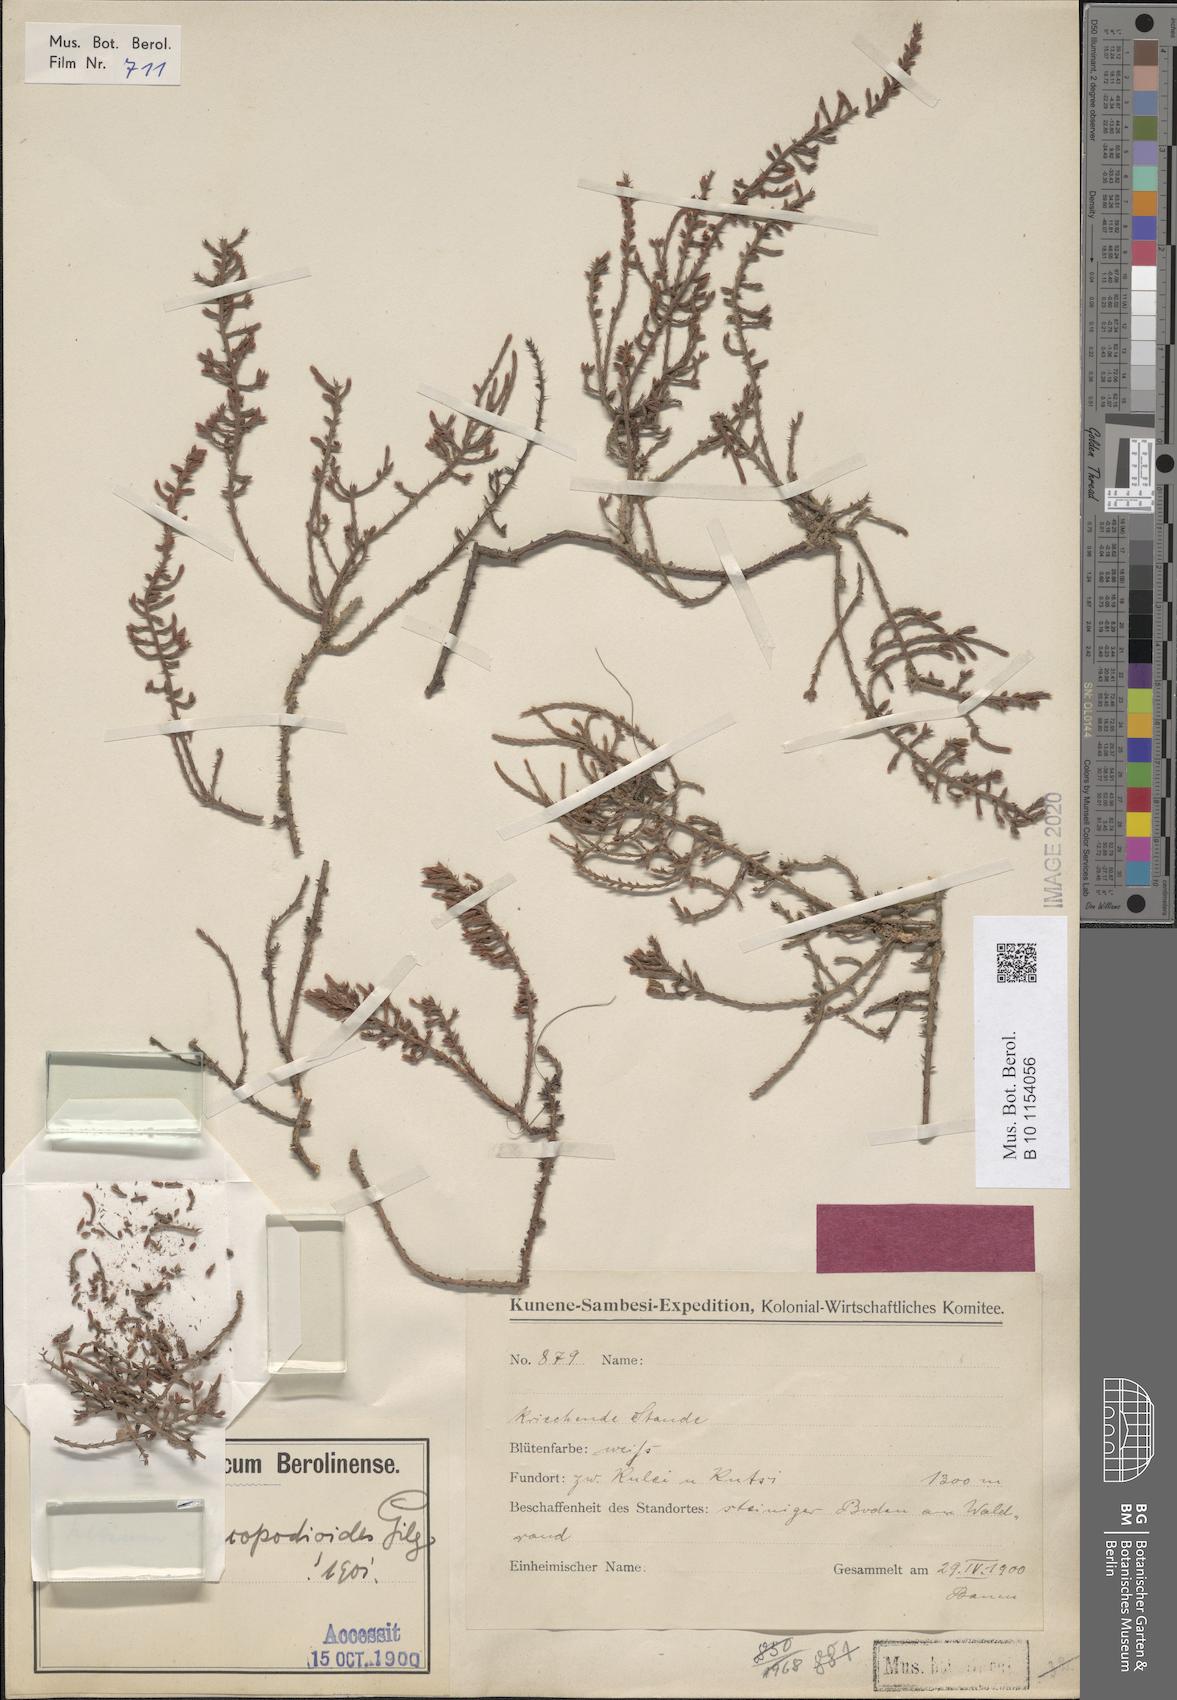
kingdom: Plantae
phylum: Tracheophyta
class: Magnoliopsida
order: Santalales
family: Thesiaceae
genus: Thesium
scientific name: Thesium lycopodioides
